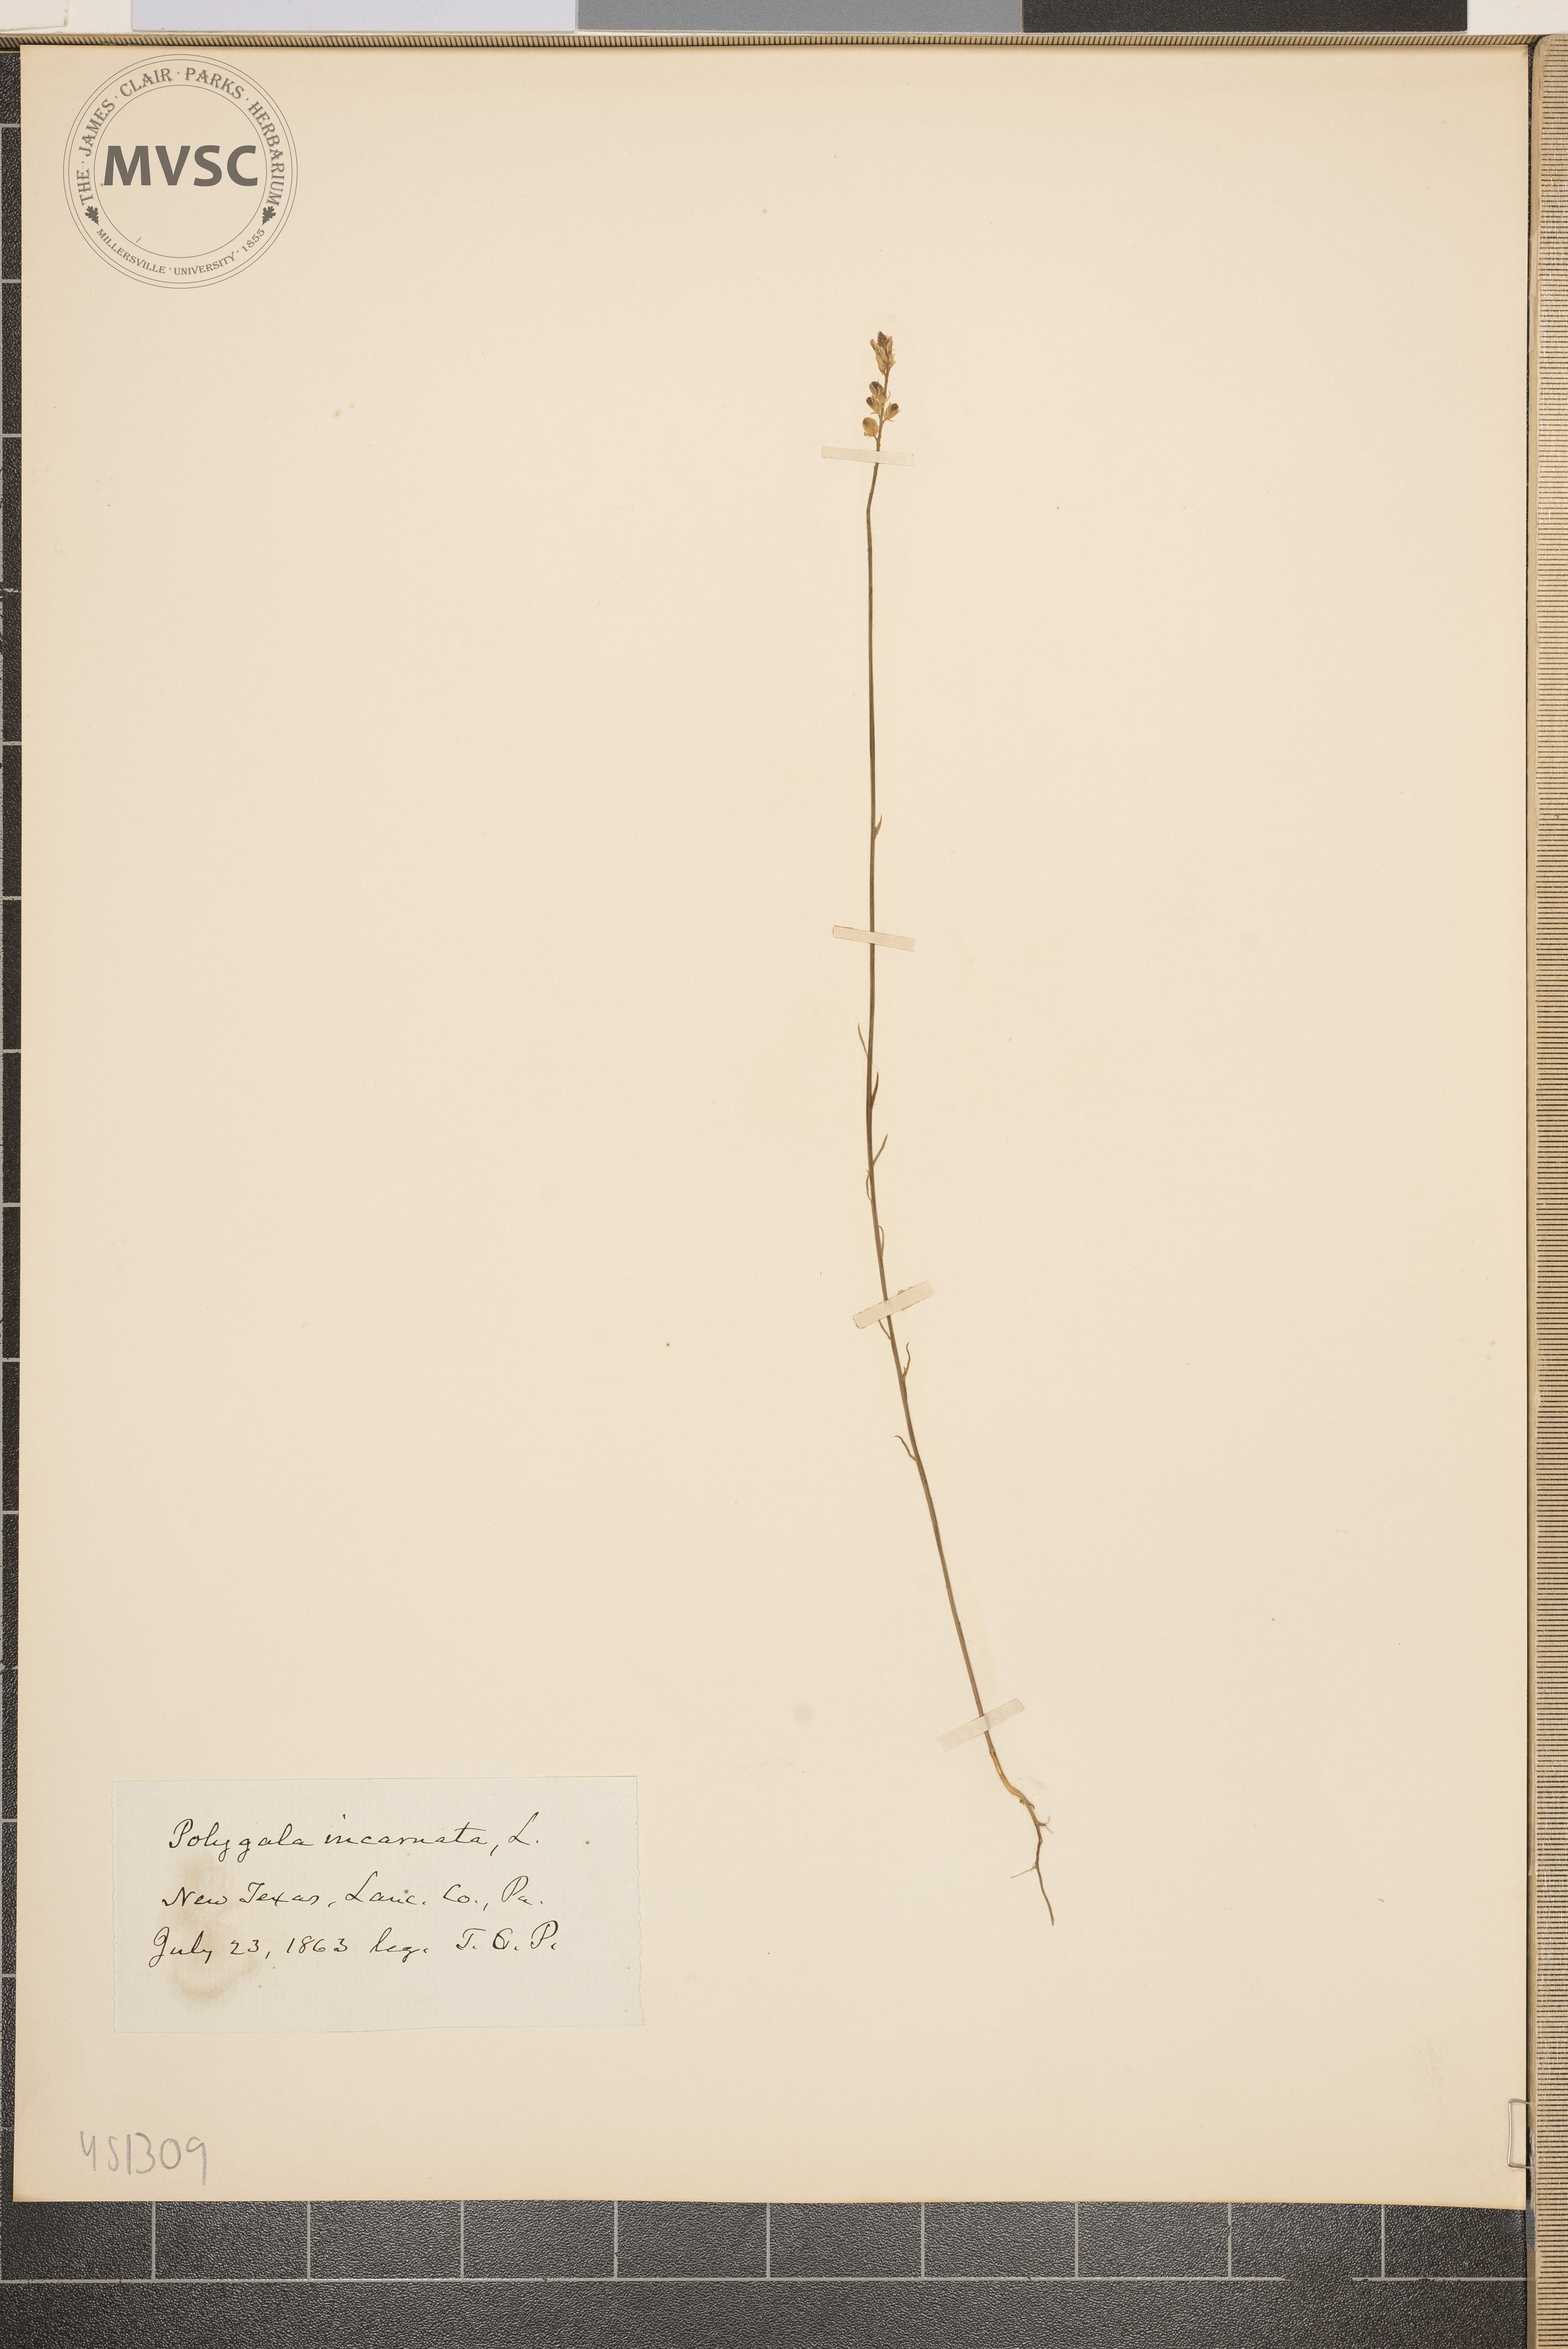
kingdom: Plantae
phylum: Tracheophyta
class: Magnoliopsida
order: Fabales
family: Polygalaceae
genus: Polygala
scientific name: Polygala incarnata
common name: Pink milkwort
